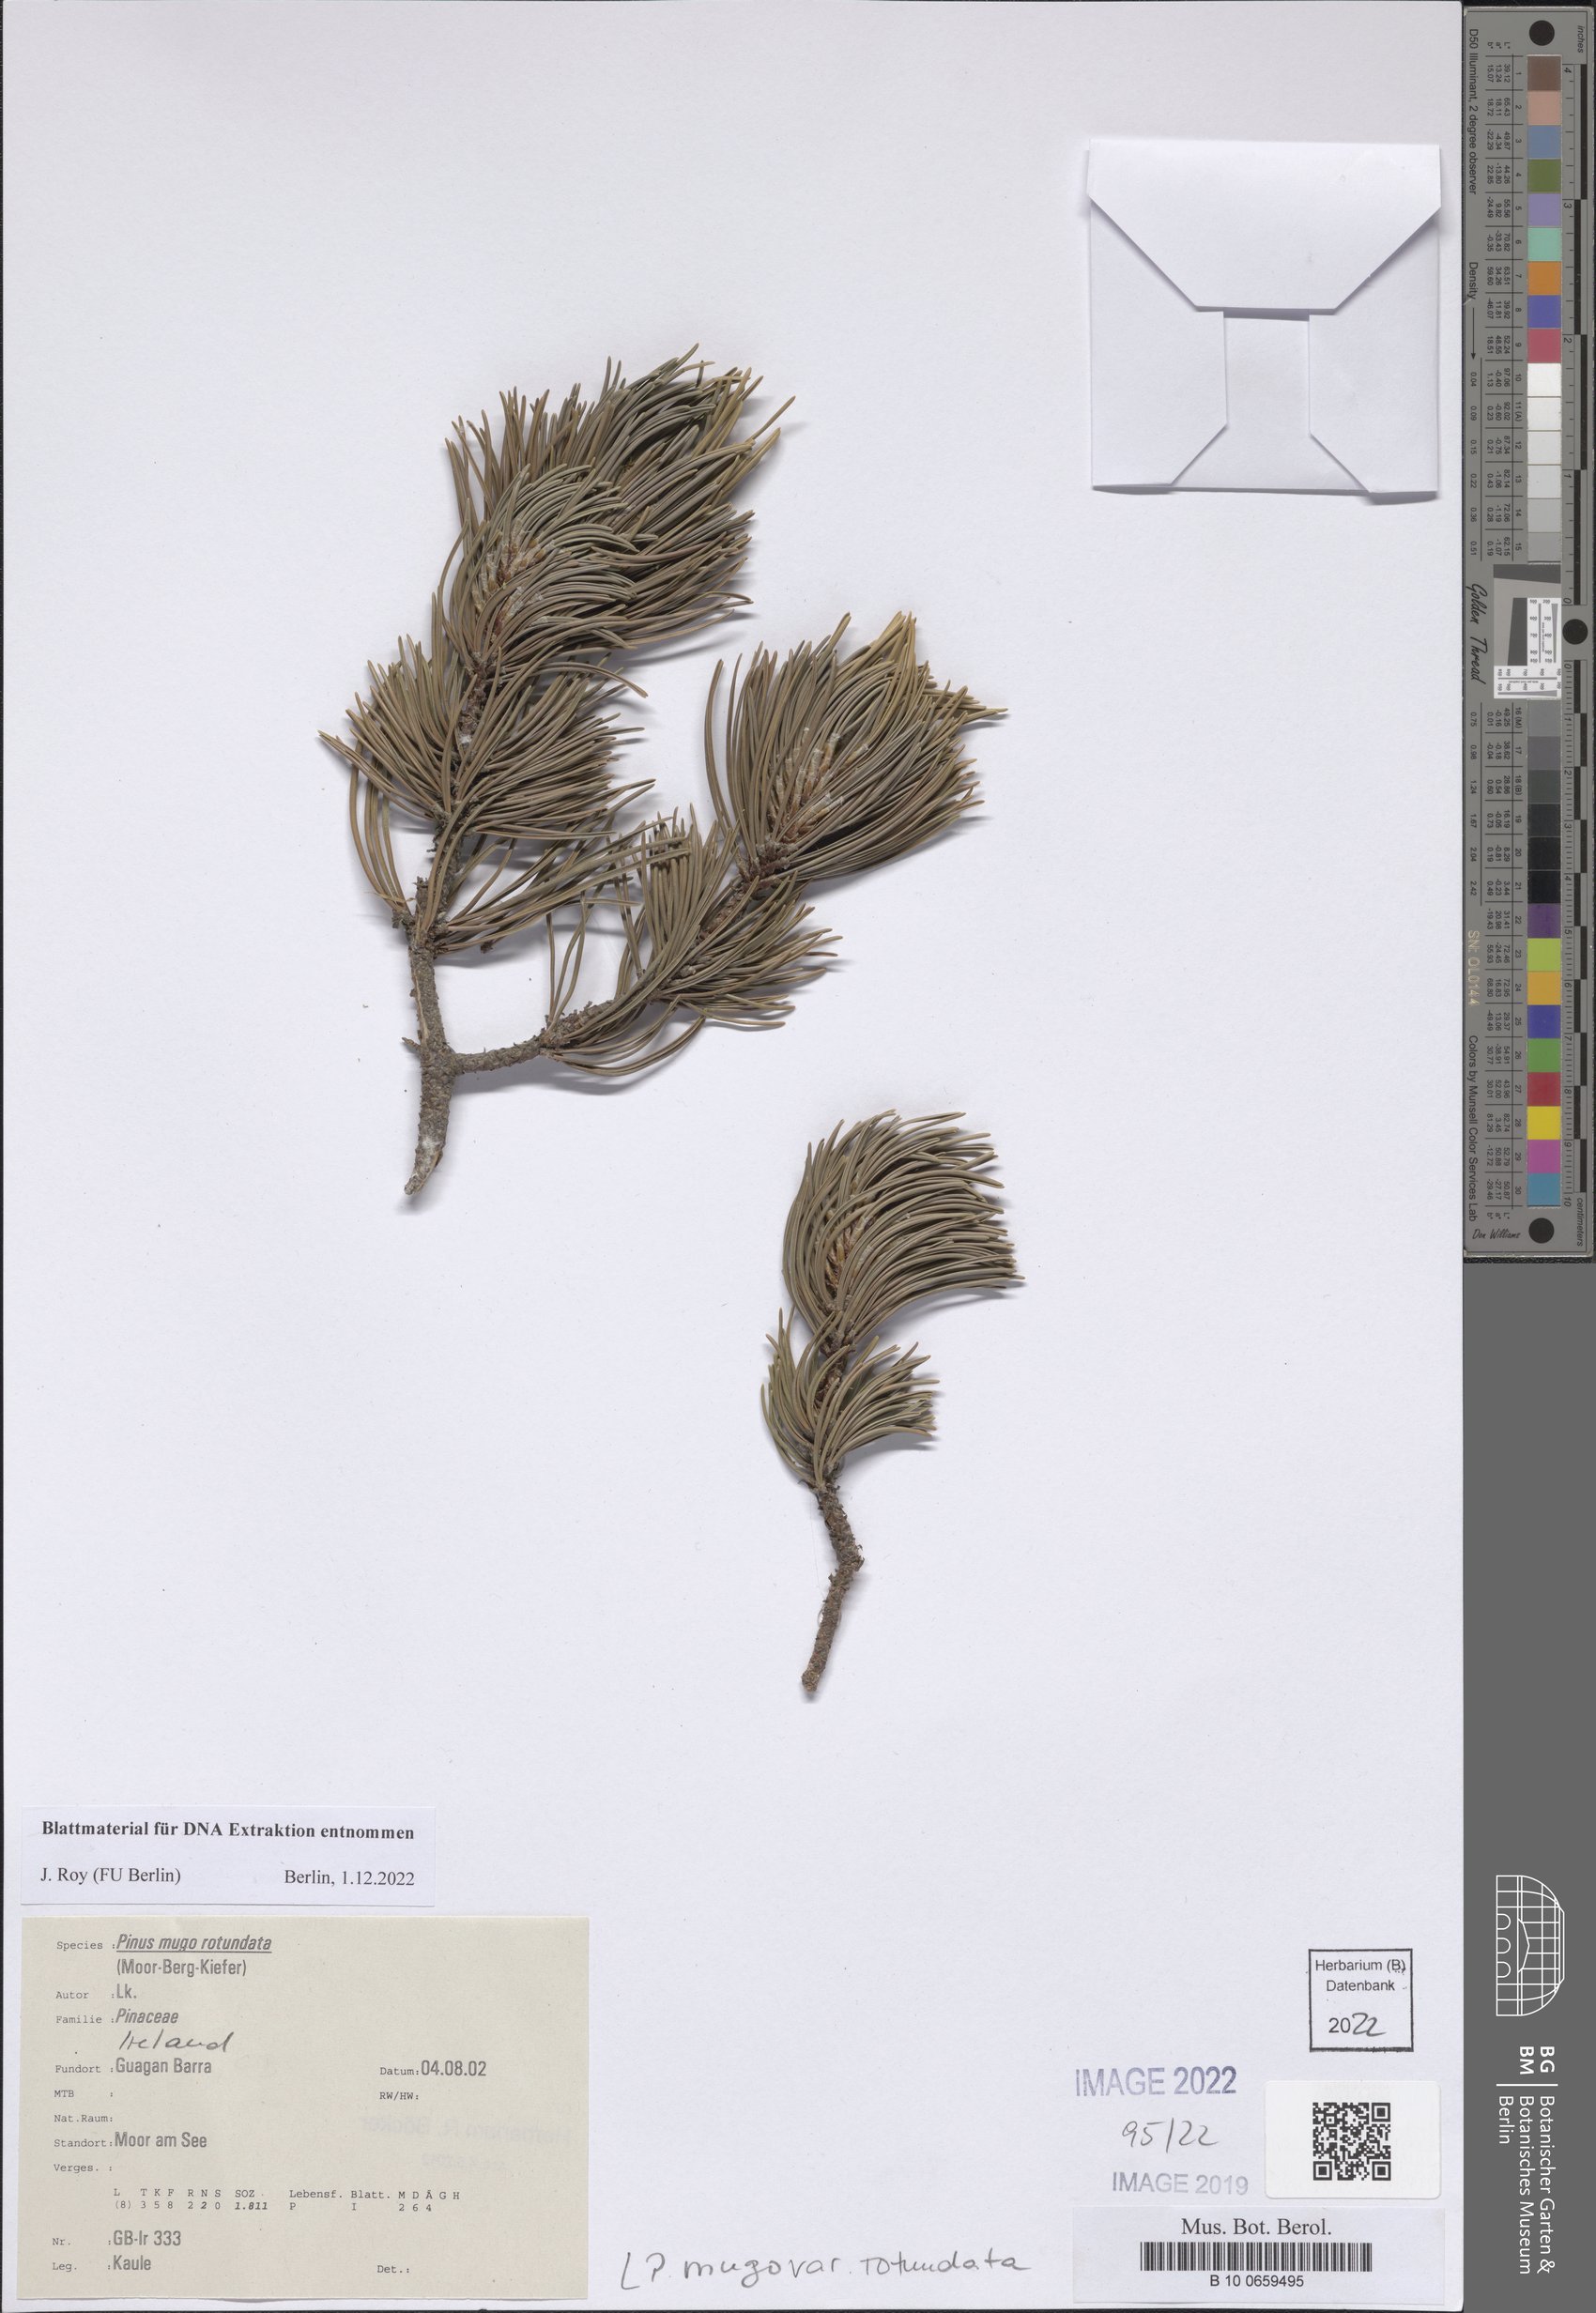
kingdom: Plantae
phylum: Tracheophyta
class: Pinopsida
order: Pinales
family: Pinaceae
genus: Pinus
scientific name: Pinus mugo
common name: Mugo pine
